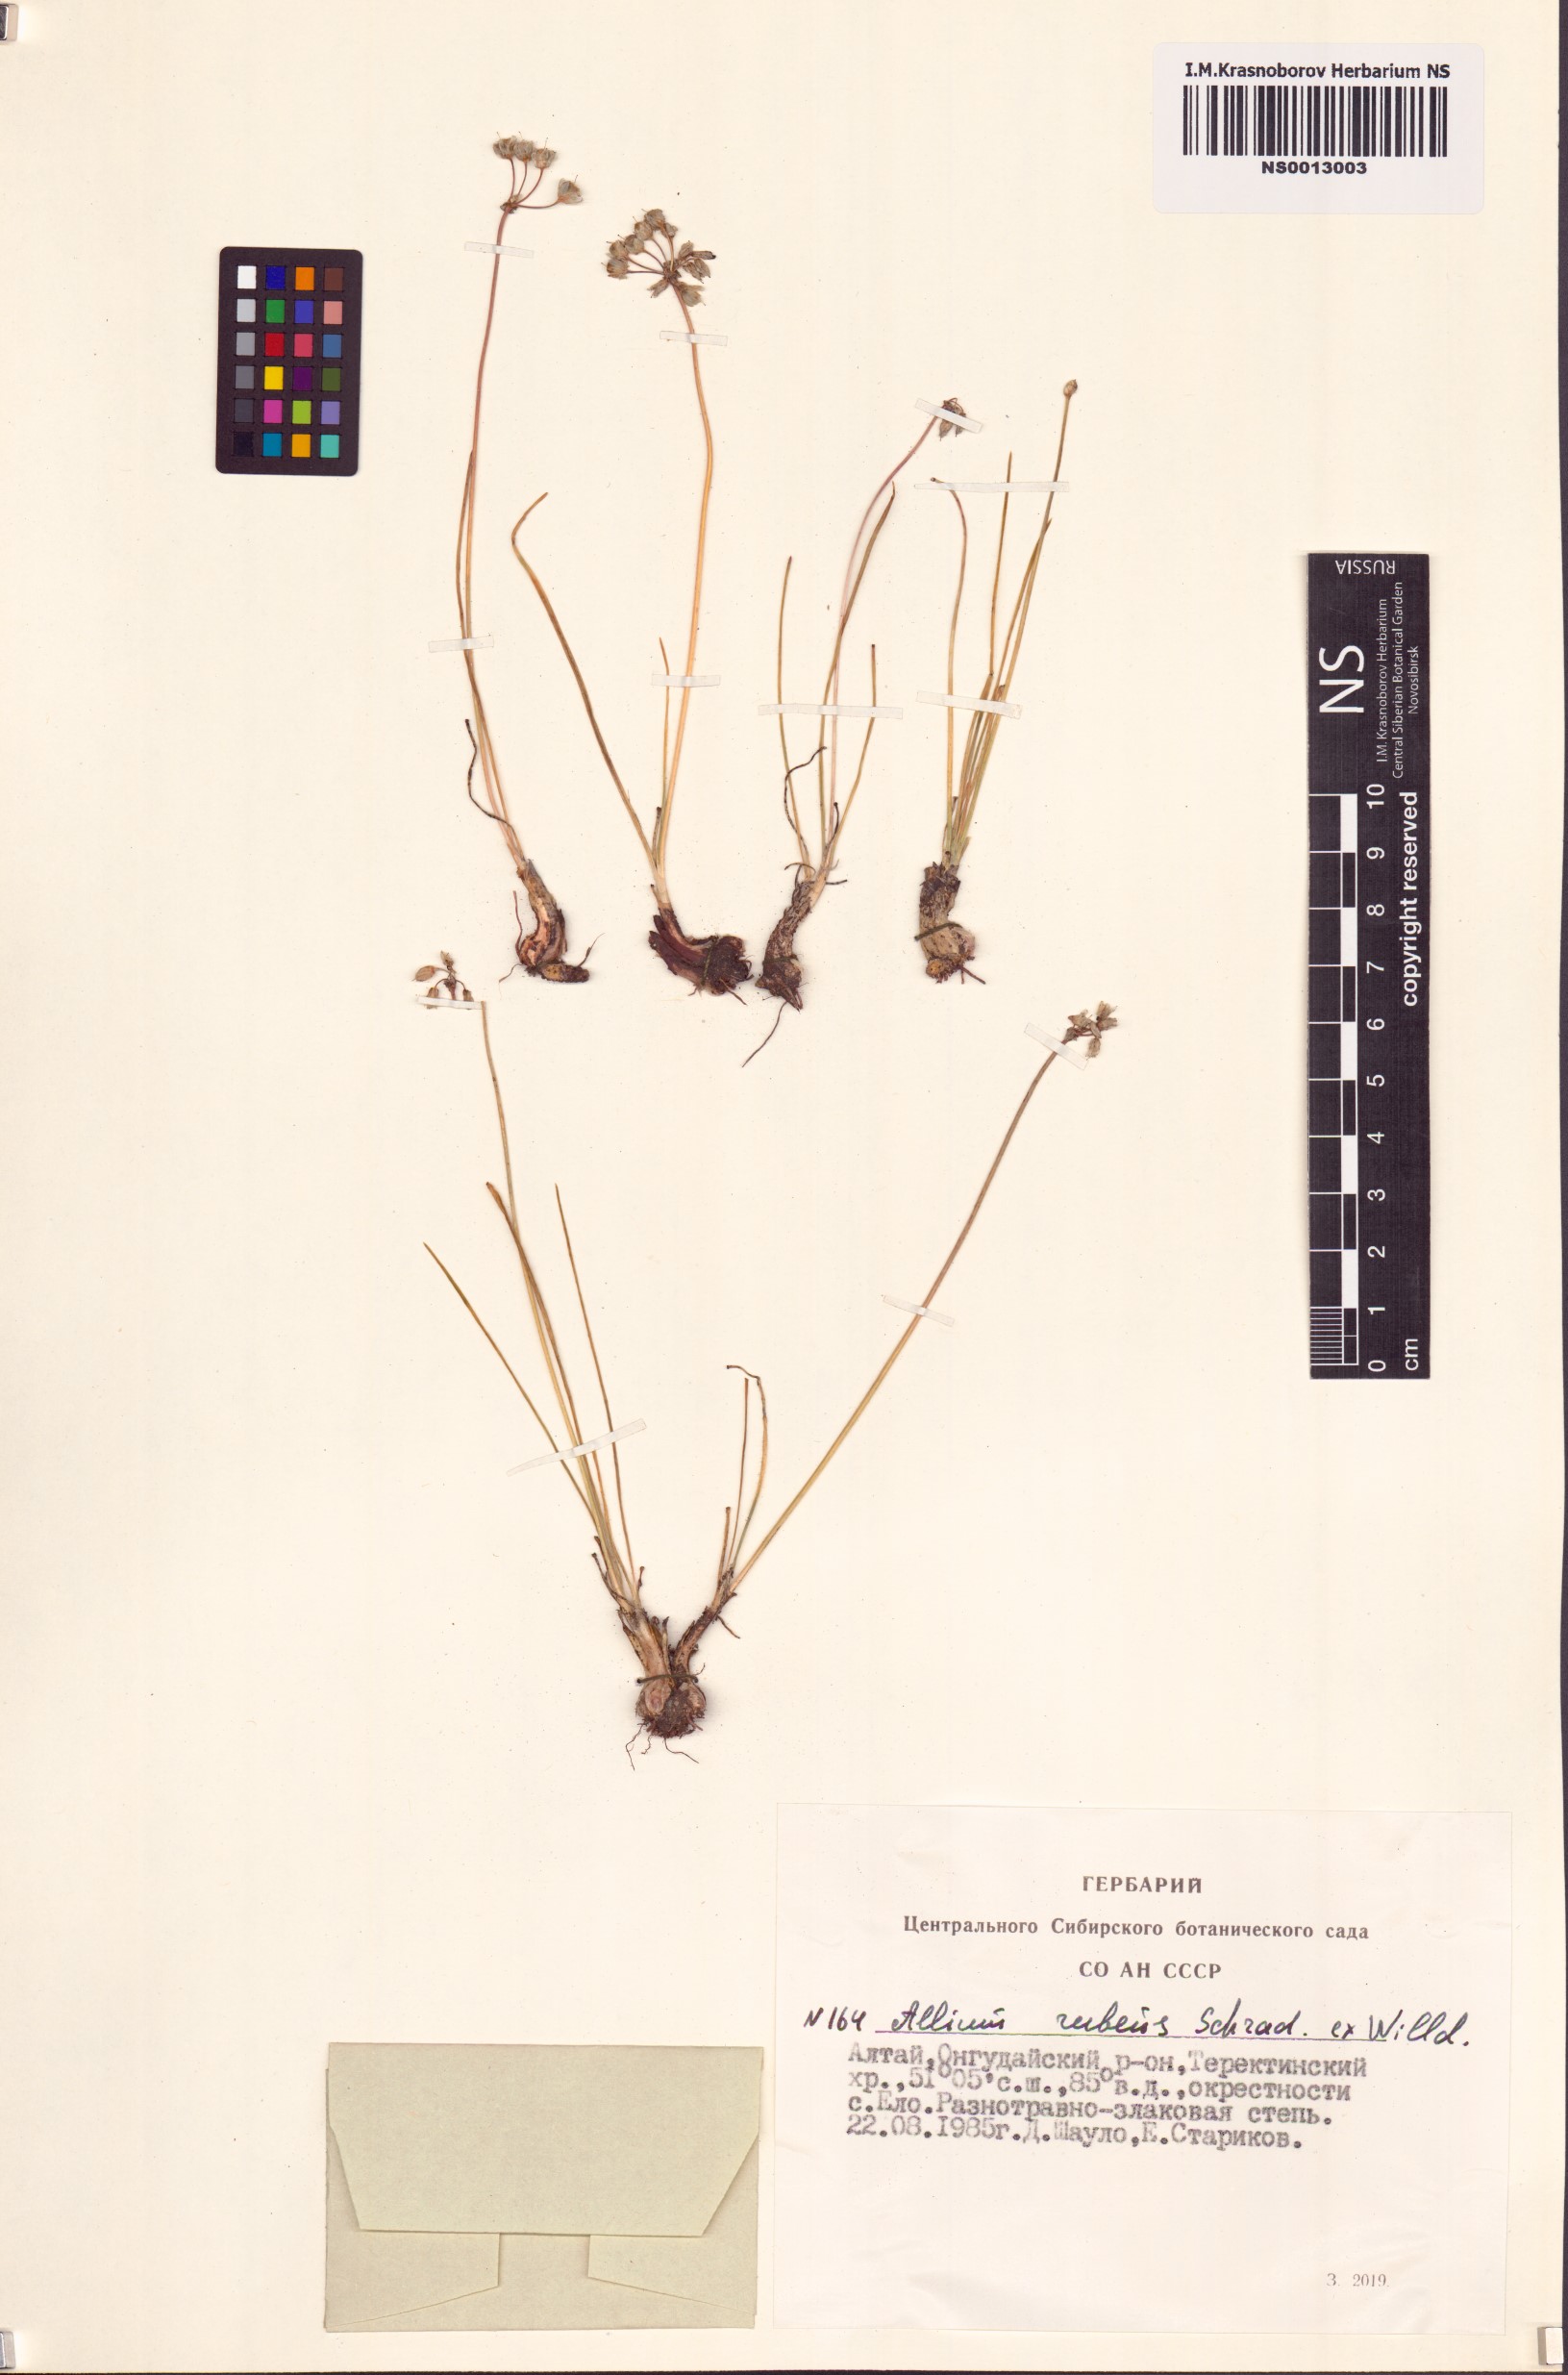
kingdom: Plantae
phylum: Tracheophyta
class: Liliopsida
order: Asparagales
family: Amaryllidaceae
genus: Allium
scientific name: Allium rubens
